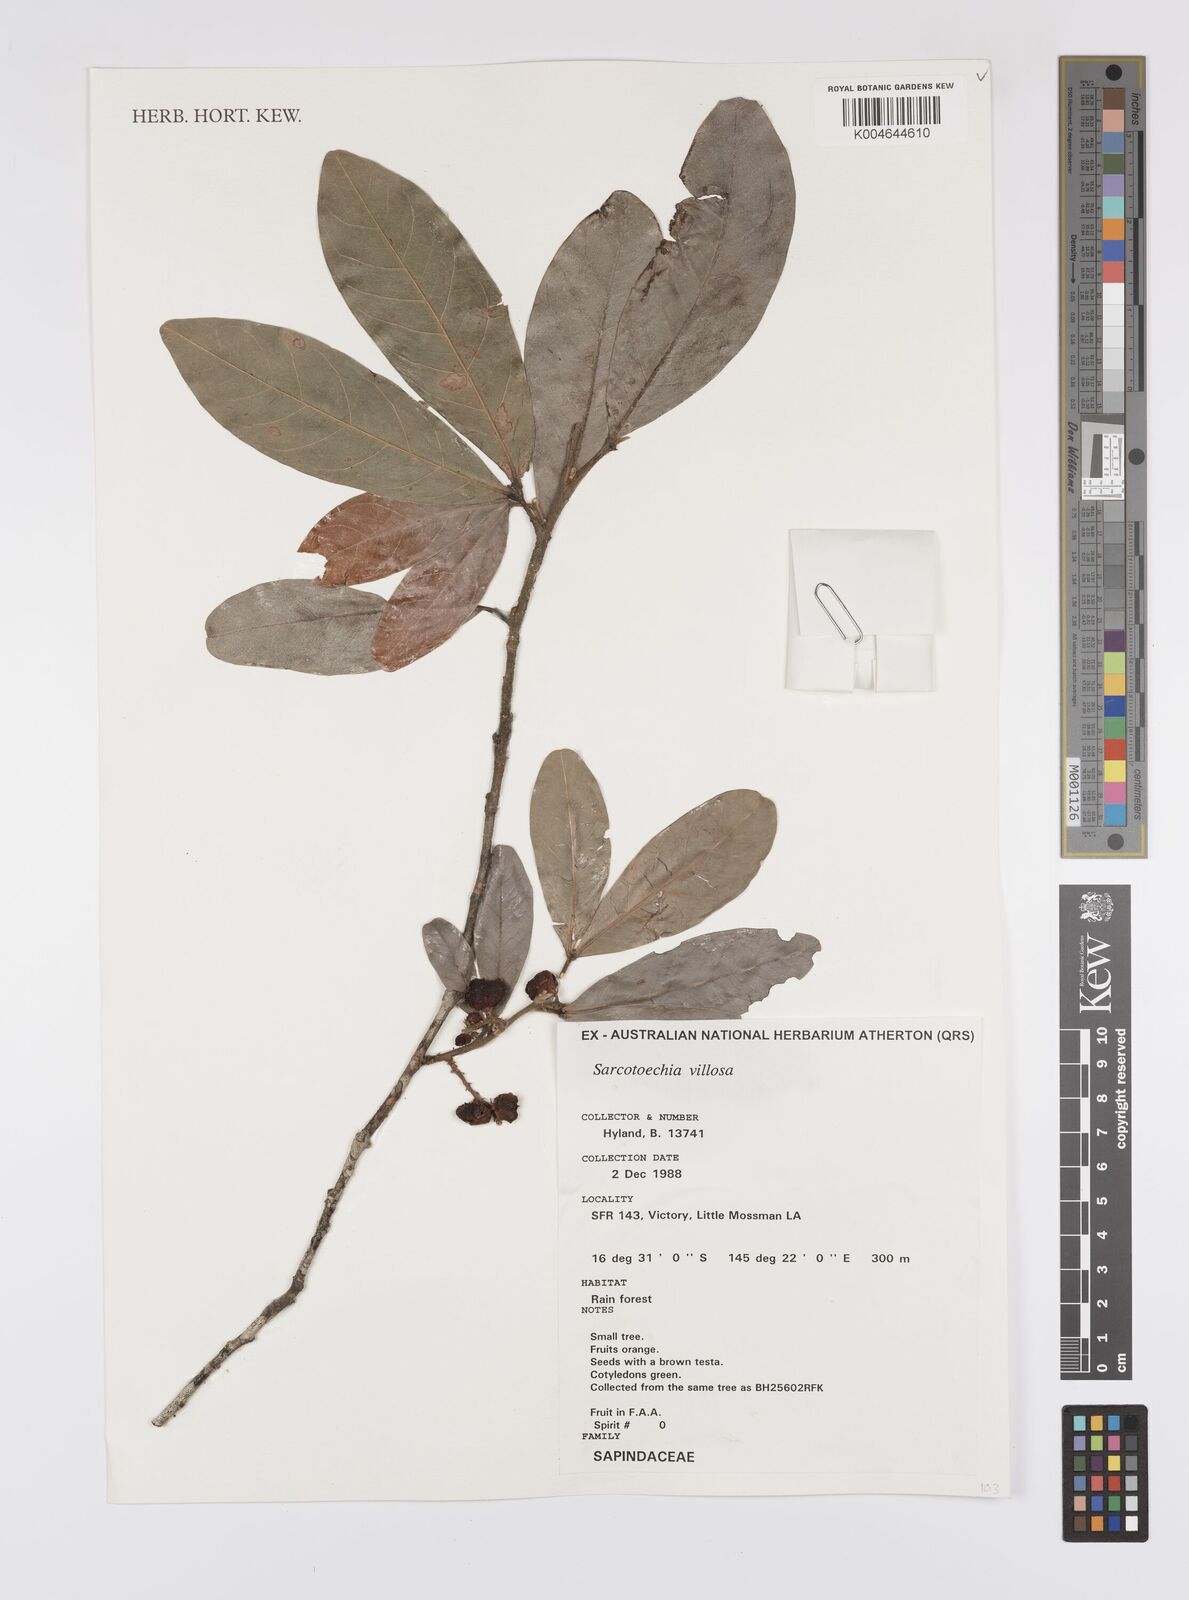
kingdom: Plantae
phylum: Tracheophyta
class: Magnoliopsida
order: Sapindales
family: Sapindaceae
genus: Sarcotoechia
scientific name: Sarcotoechia villosa
